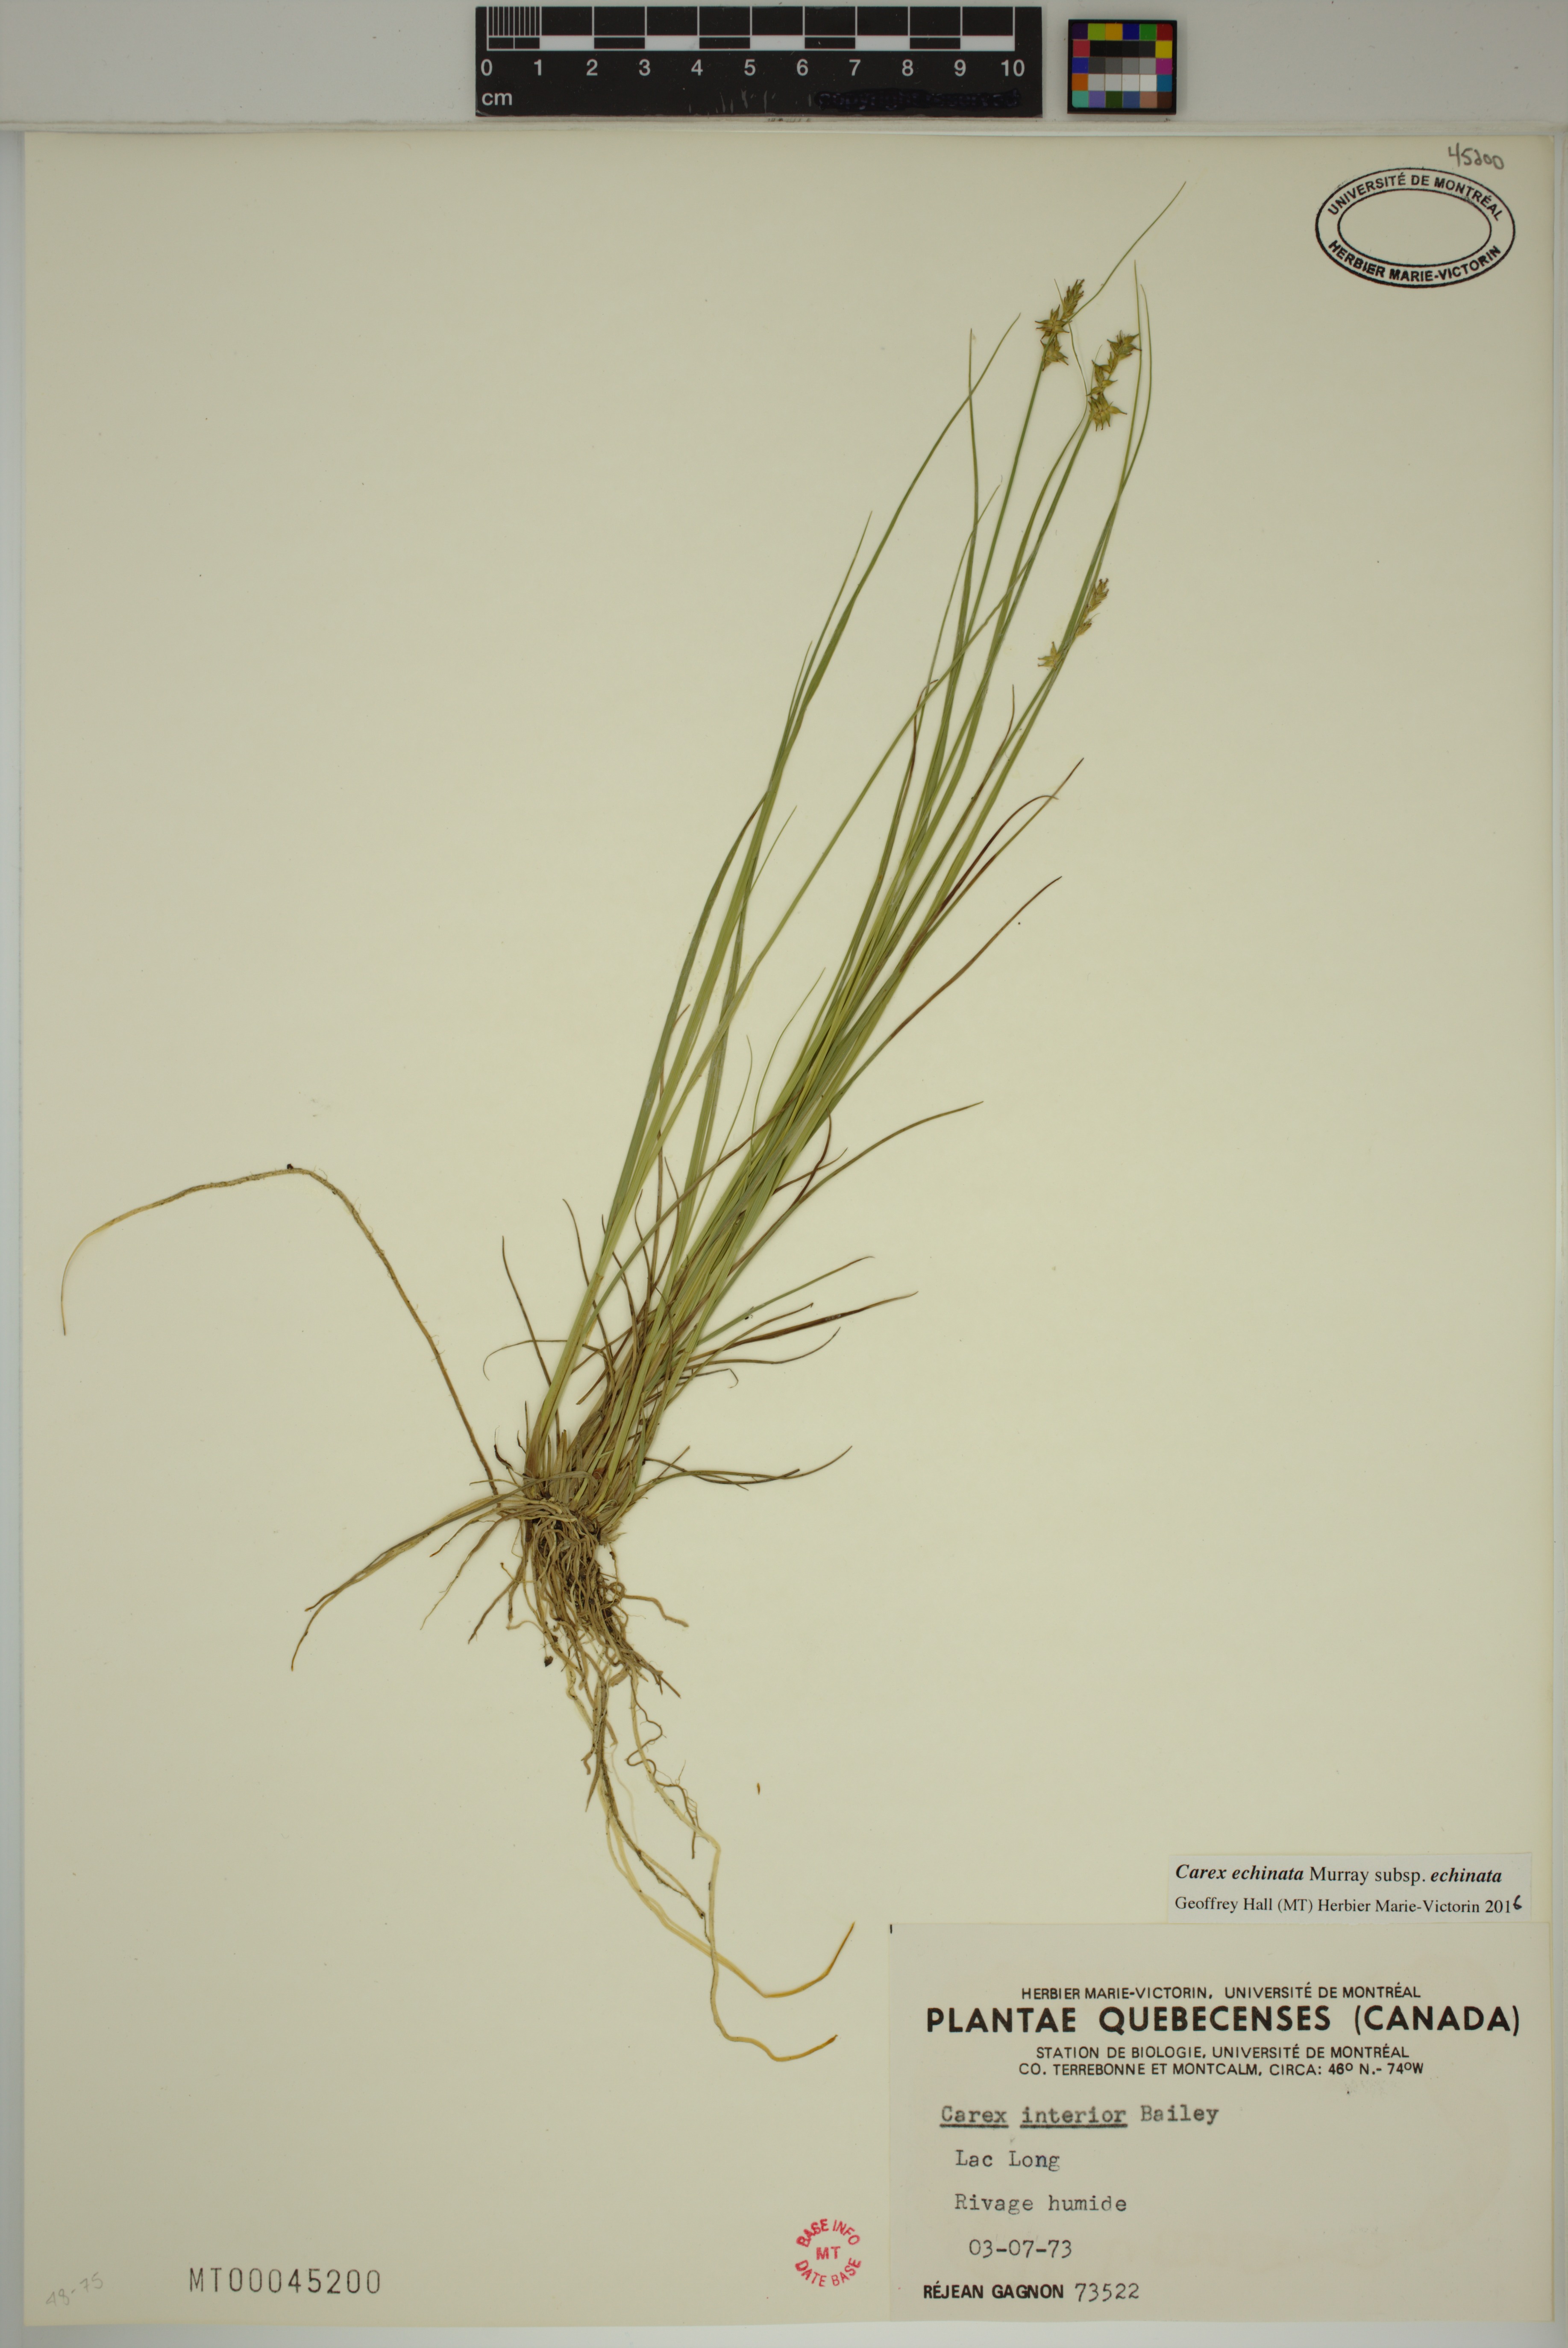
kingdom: Plantae
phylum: Tracheophyta
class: Liliopsida
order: Poales
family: Cyperaceae
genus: Carex
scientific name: Carex echinata
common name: Star sedge
